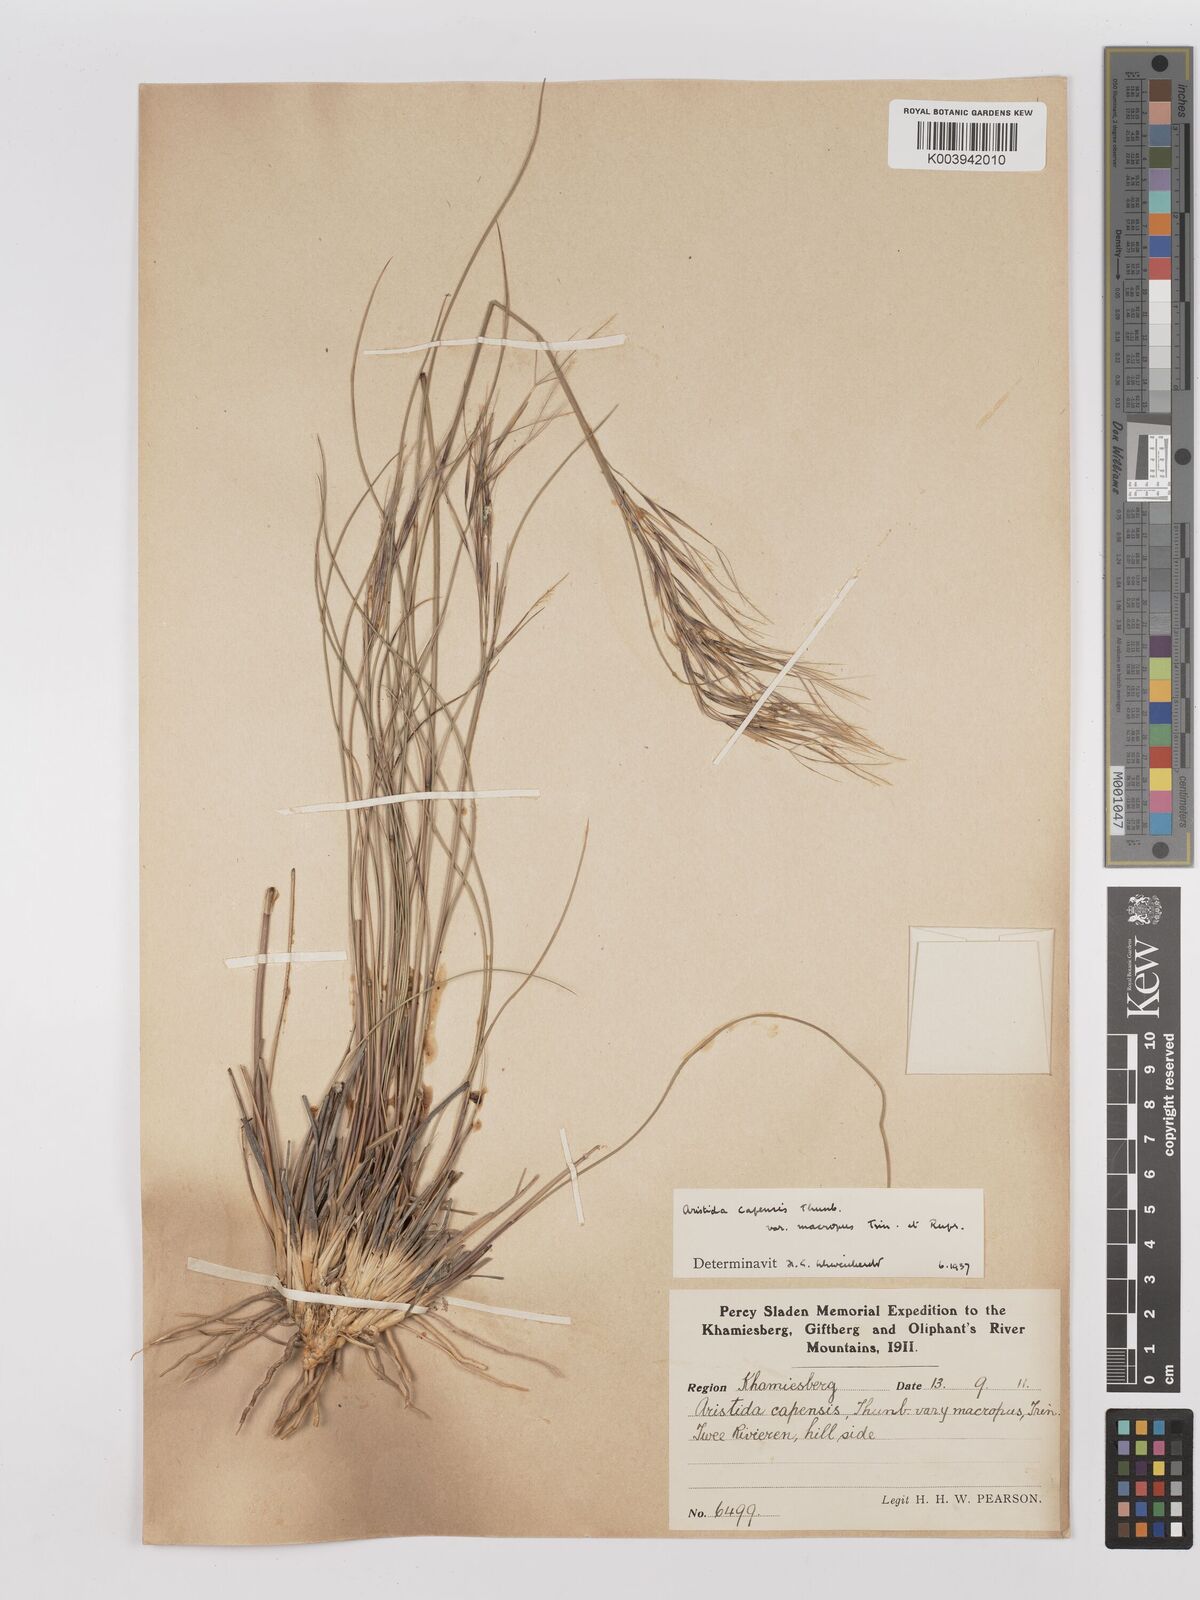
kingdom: Plantae
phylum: Tracheophyta
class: Liliopsida
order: Poales
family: Poaceae
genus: Stipagrostis
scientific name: Stipagrostis zeyheri
